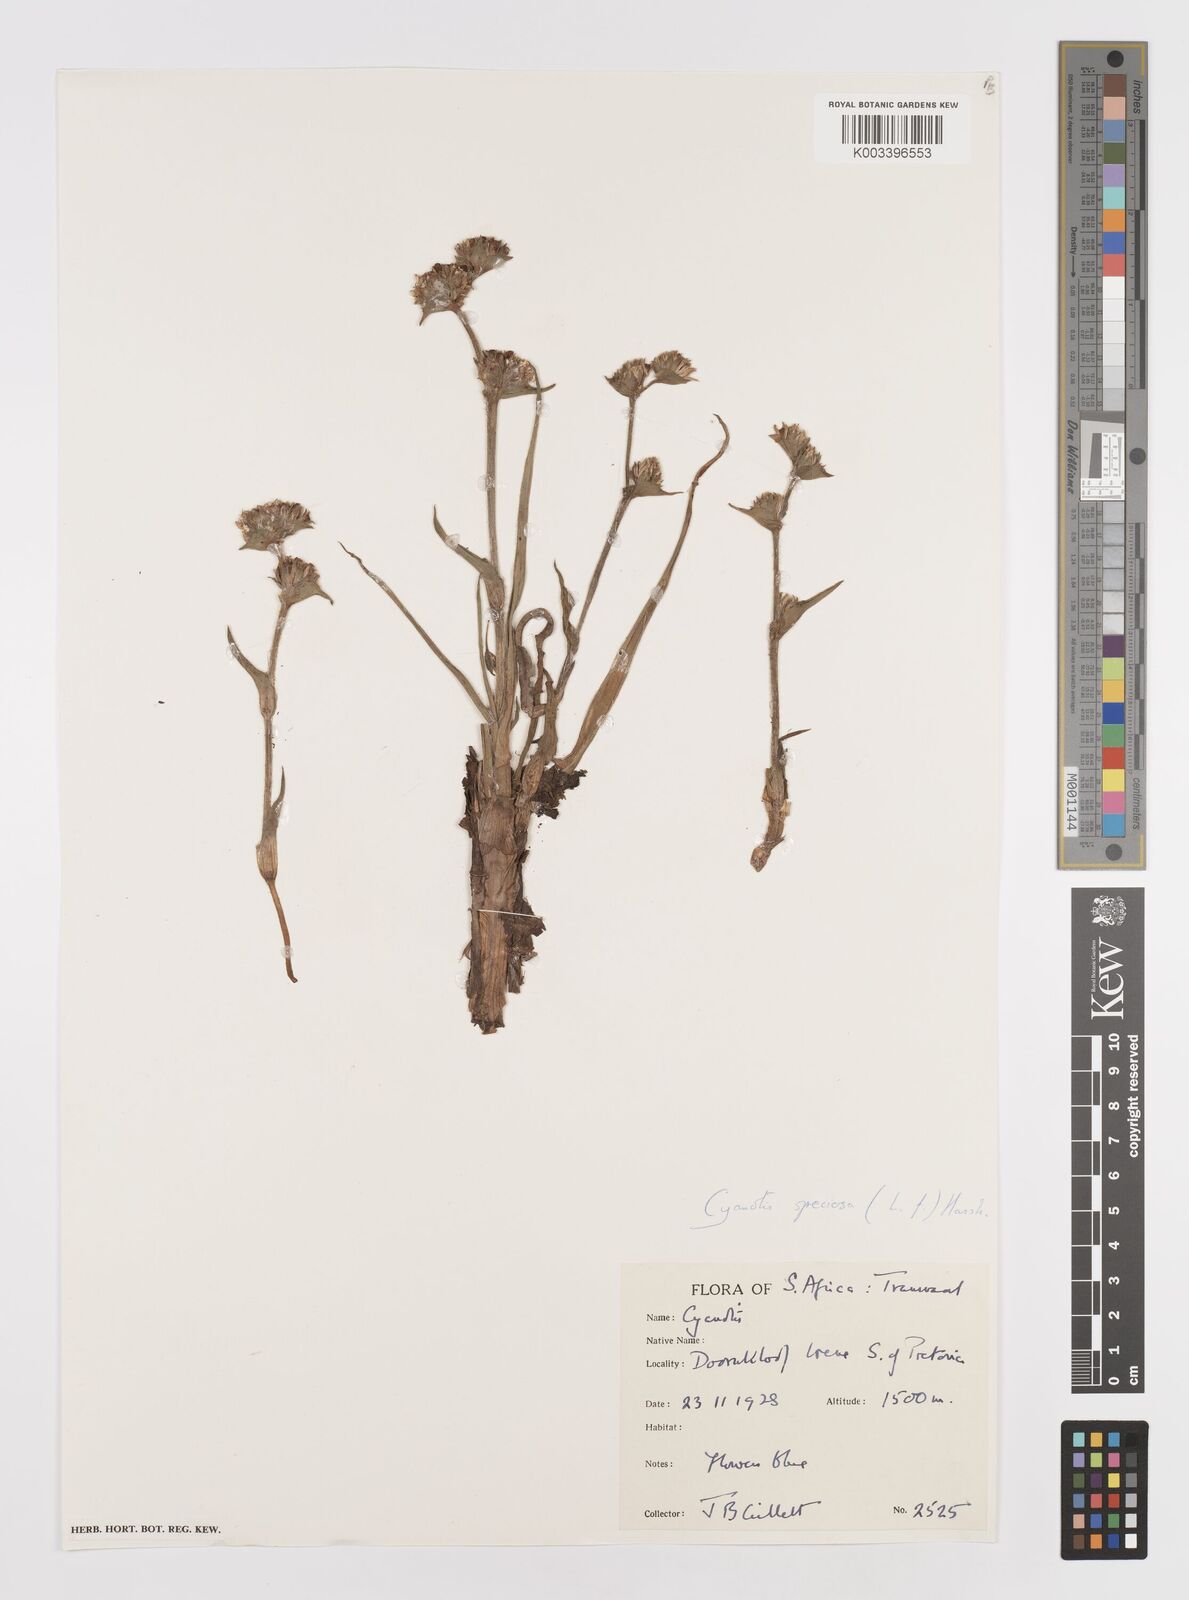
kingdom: Plantae
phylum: Tracheophyta
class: Liliopsida
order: Commelinales
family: Commelinaceae
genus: Cyanotis
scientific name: Cyanotis speciosa
